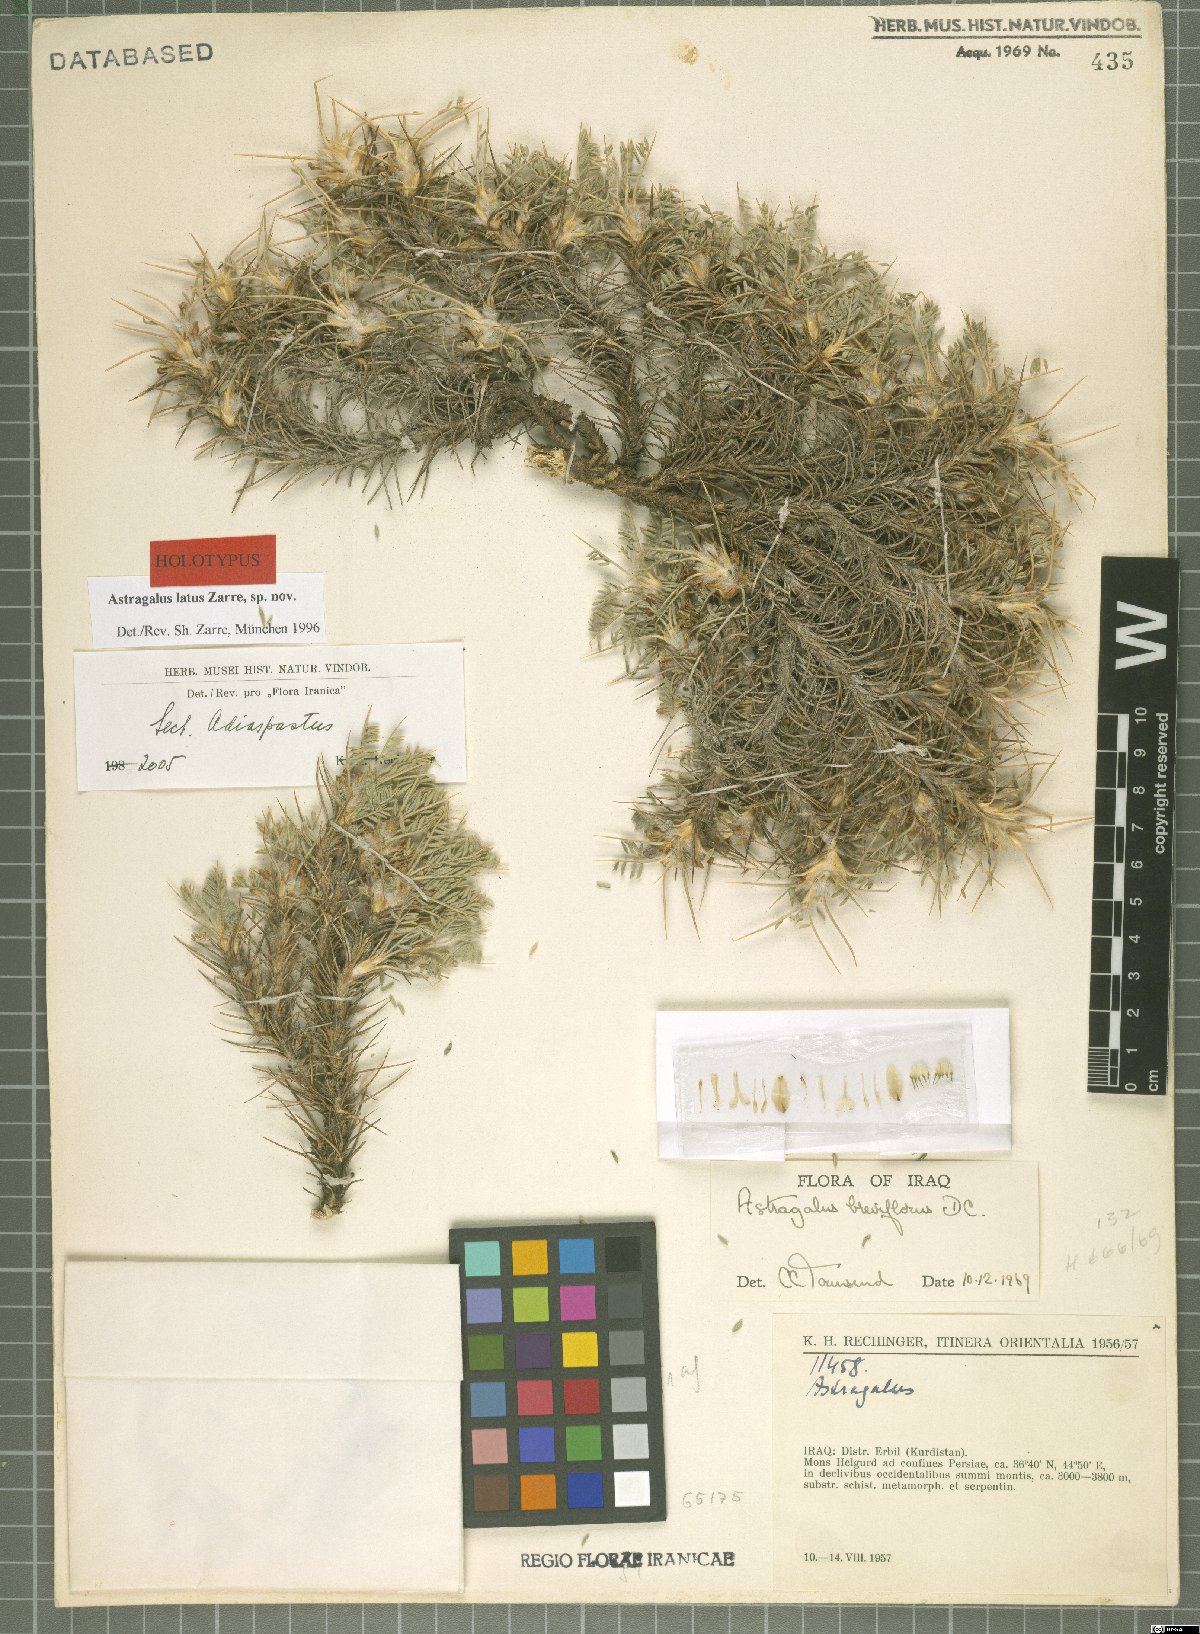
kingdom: Plantae
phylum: Tracheophyta
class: Magnoliopsida
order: Fabales
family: Fabaceae
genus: Astragalus
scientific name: Astragalus latusioides
